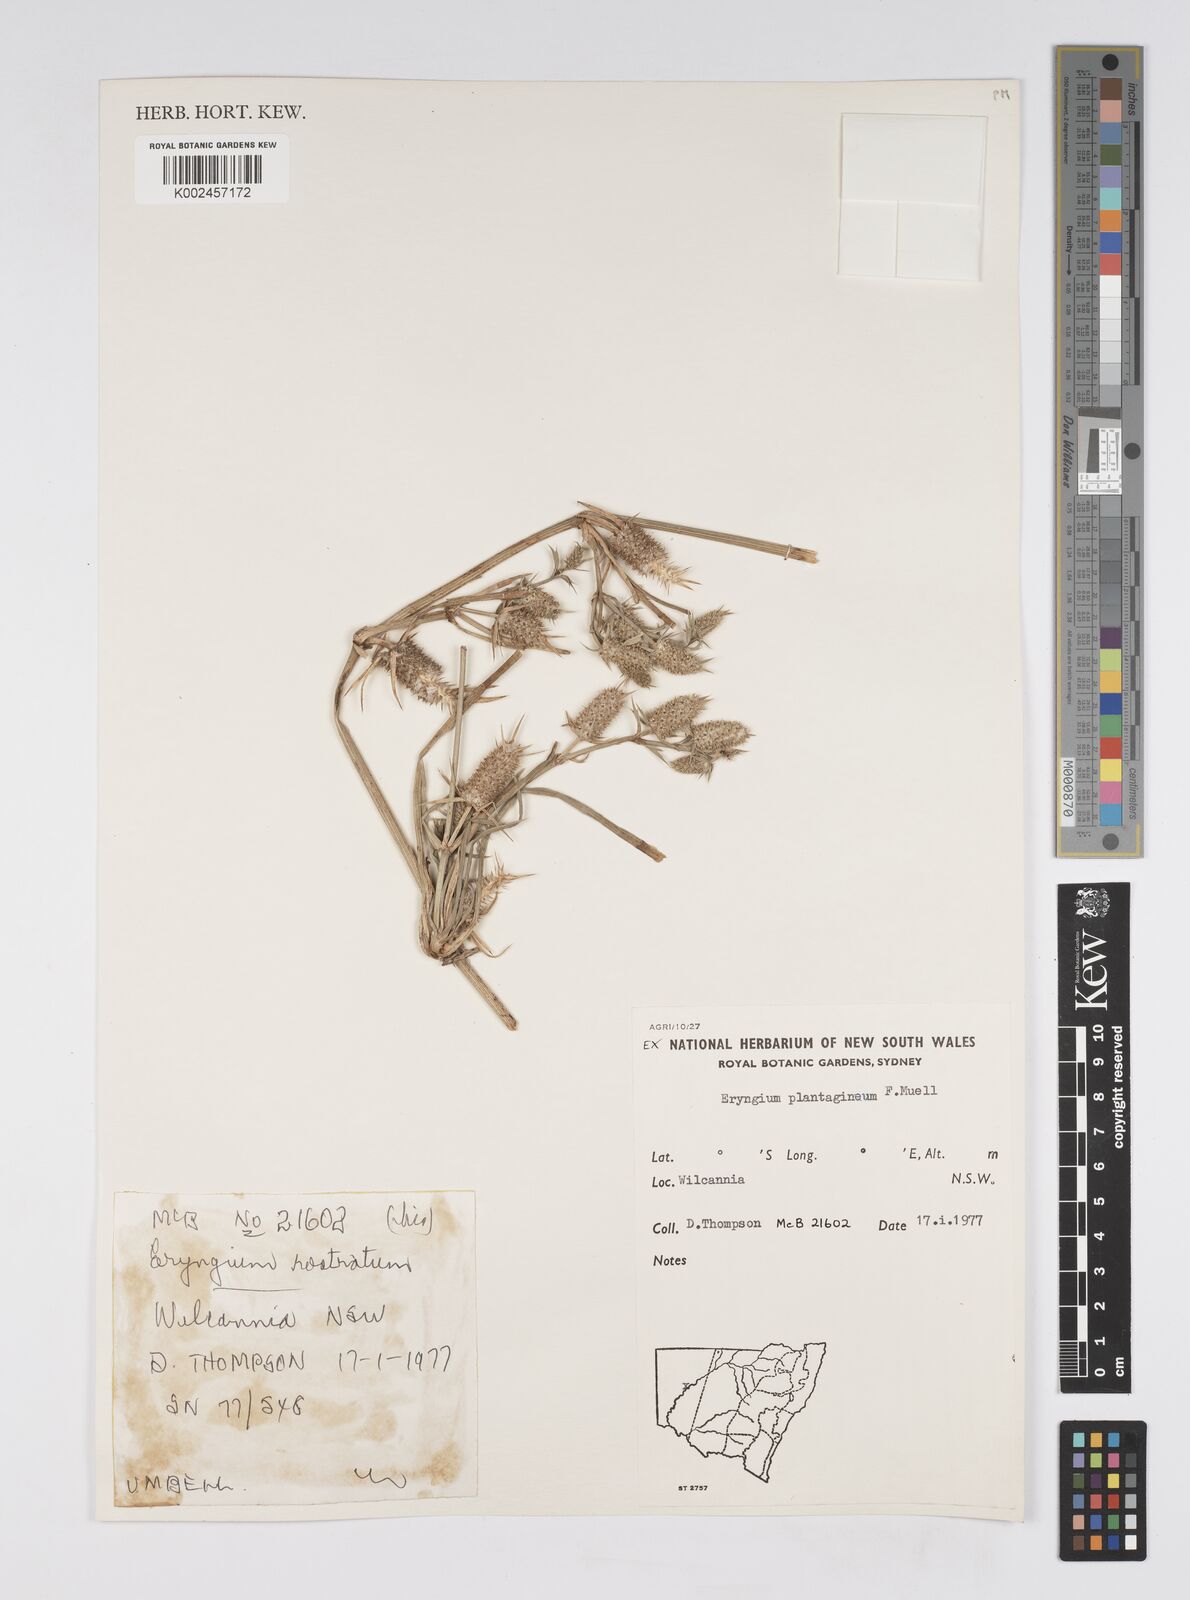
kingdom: Plantae
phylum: Tracheophyta
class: Magnoliopsida
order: Apiales
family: Apiaceae
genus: Eryngium
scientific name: Eryngium plantagineum
